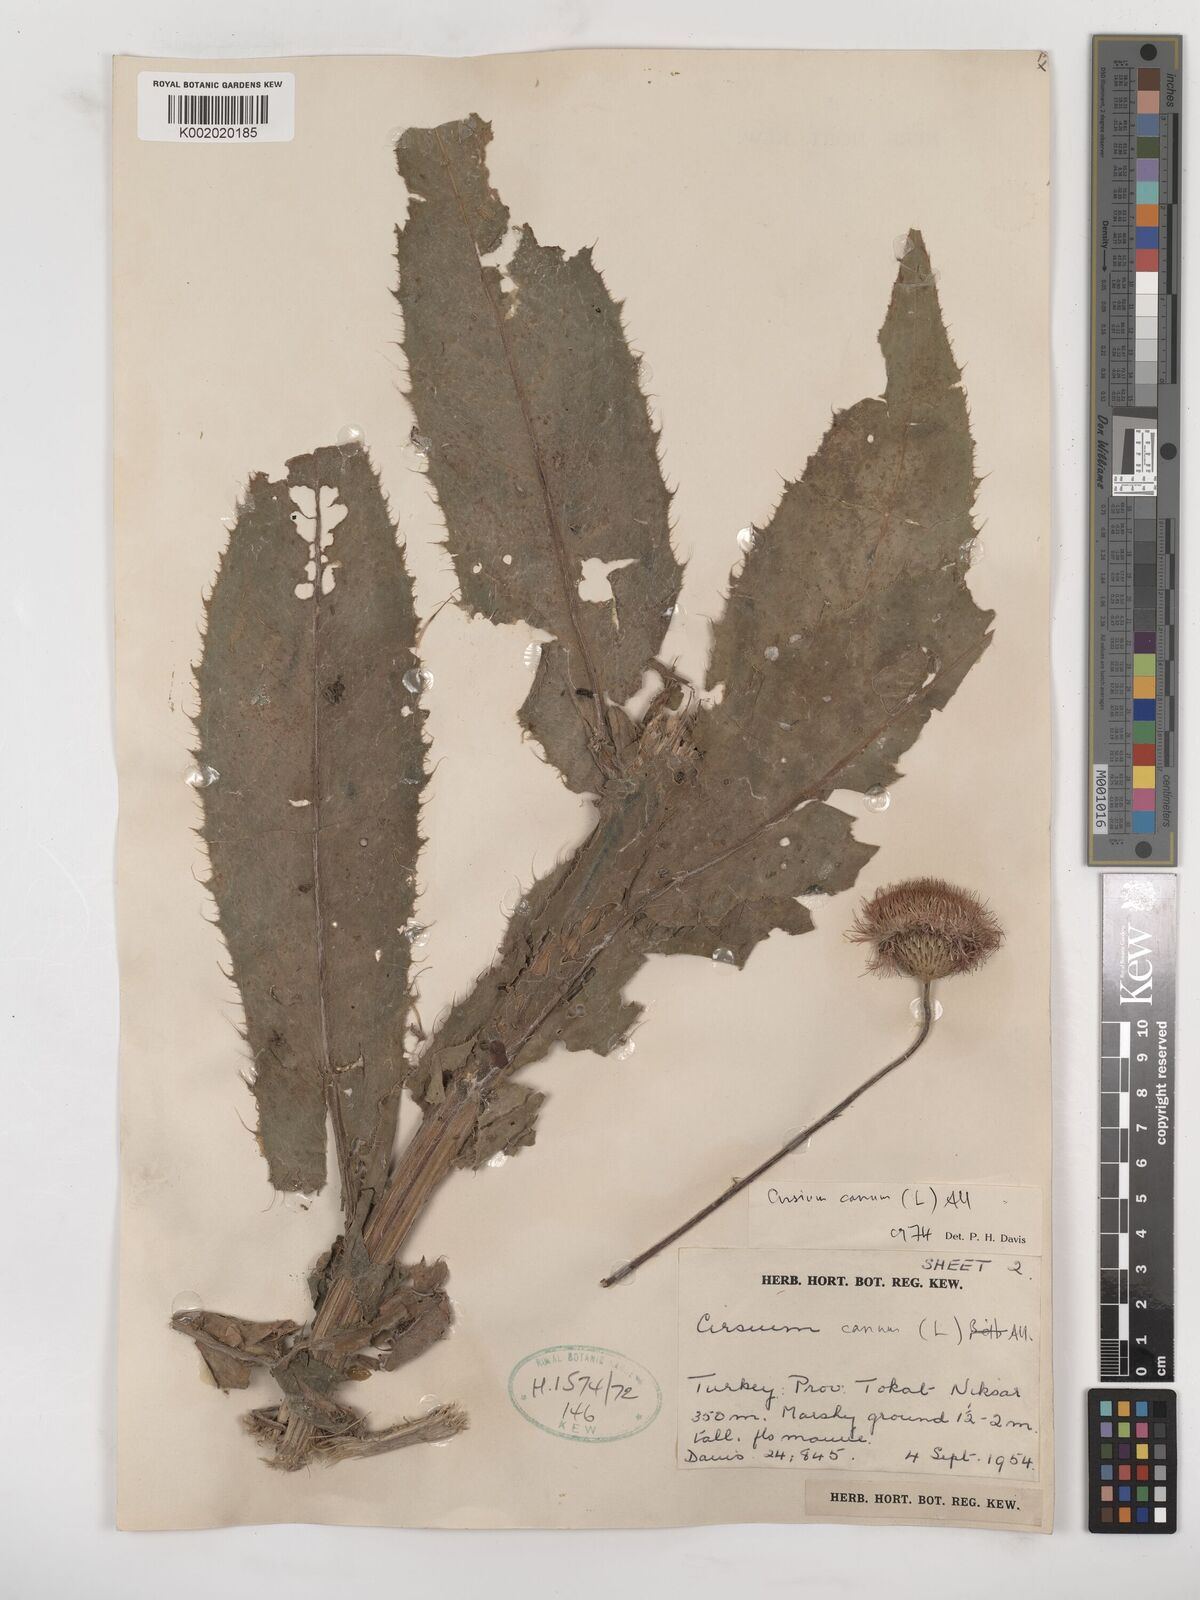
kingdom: Plantae
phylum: Tracheophyta
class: Magnoliopsida
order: Asterales
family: Asteraceae
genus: Cirsium
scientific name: Cirsium canum
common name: Queen anne's thistle
